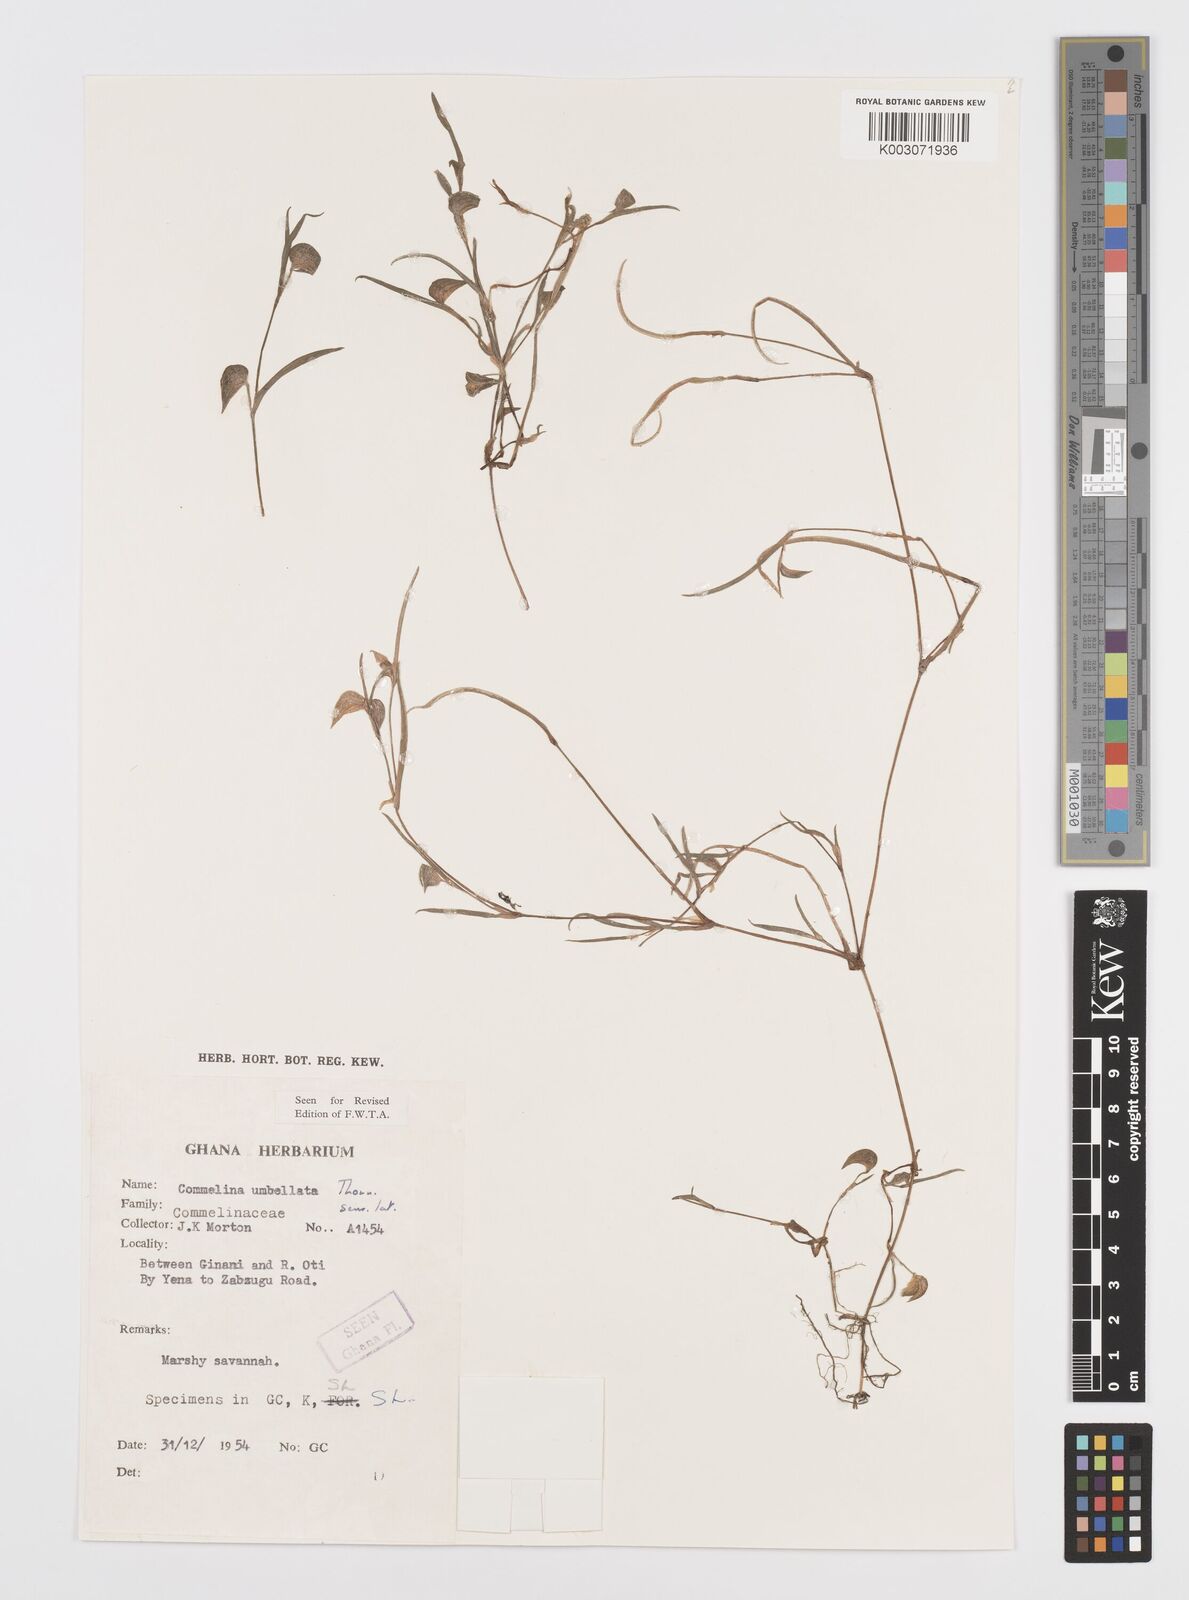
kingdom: Plantae
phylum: Tracheophyta
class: Liliopsida
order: Commelinales
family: Commelinaceae
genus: Commelina
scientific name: Commelina
